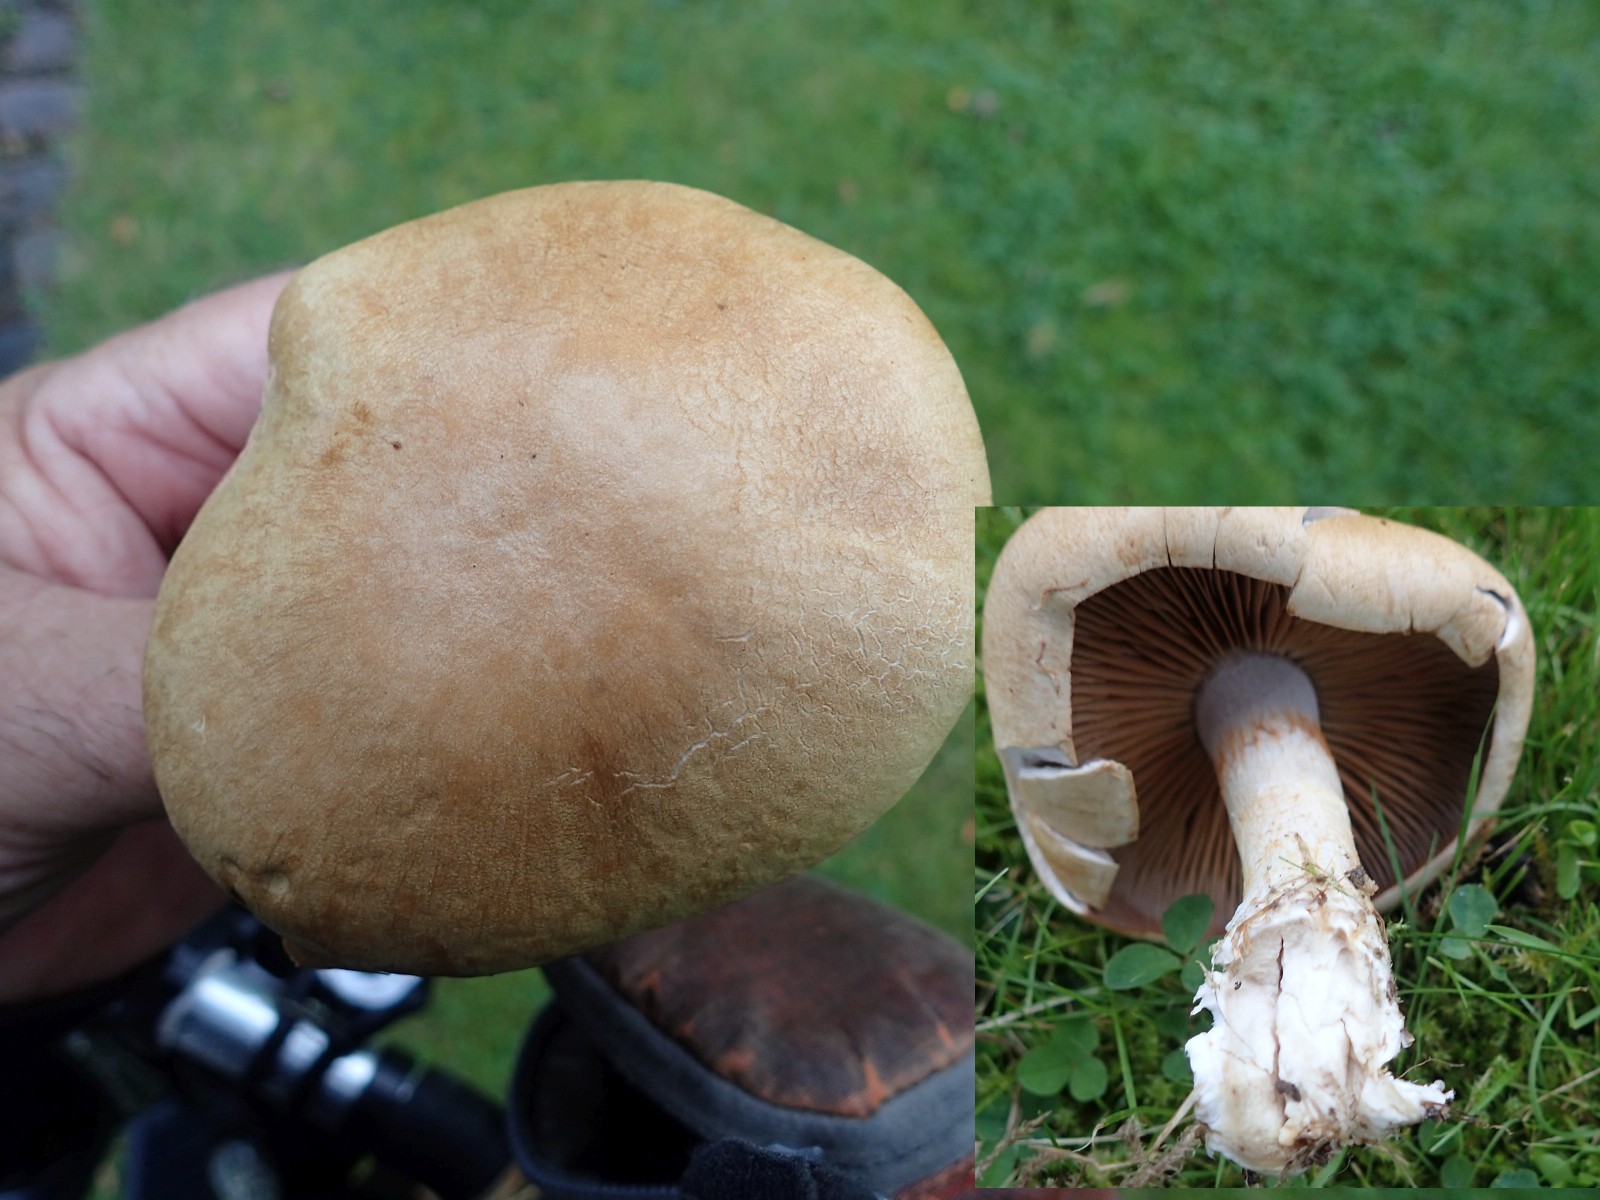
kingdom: Fungi
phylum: Basidiomycota
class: Agaricomycetes
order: Agaricales
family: Cortinariaceae
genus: Cortinarius
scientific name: Cortinarius
